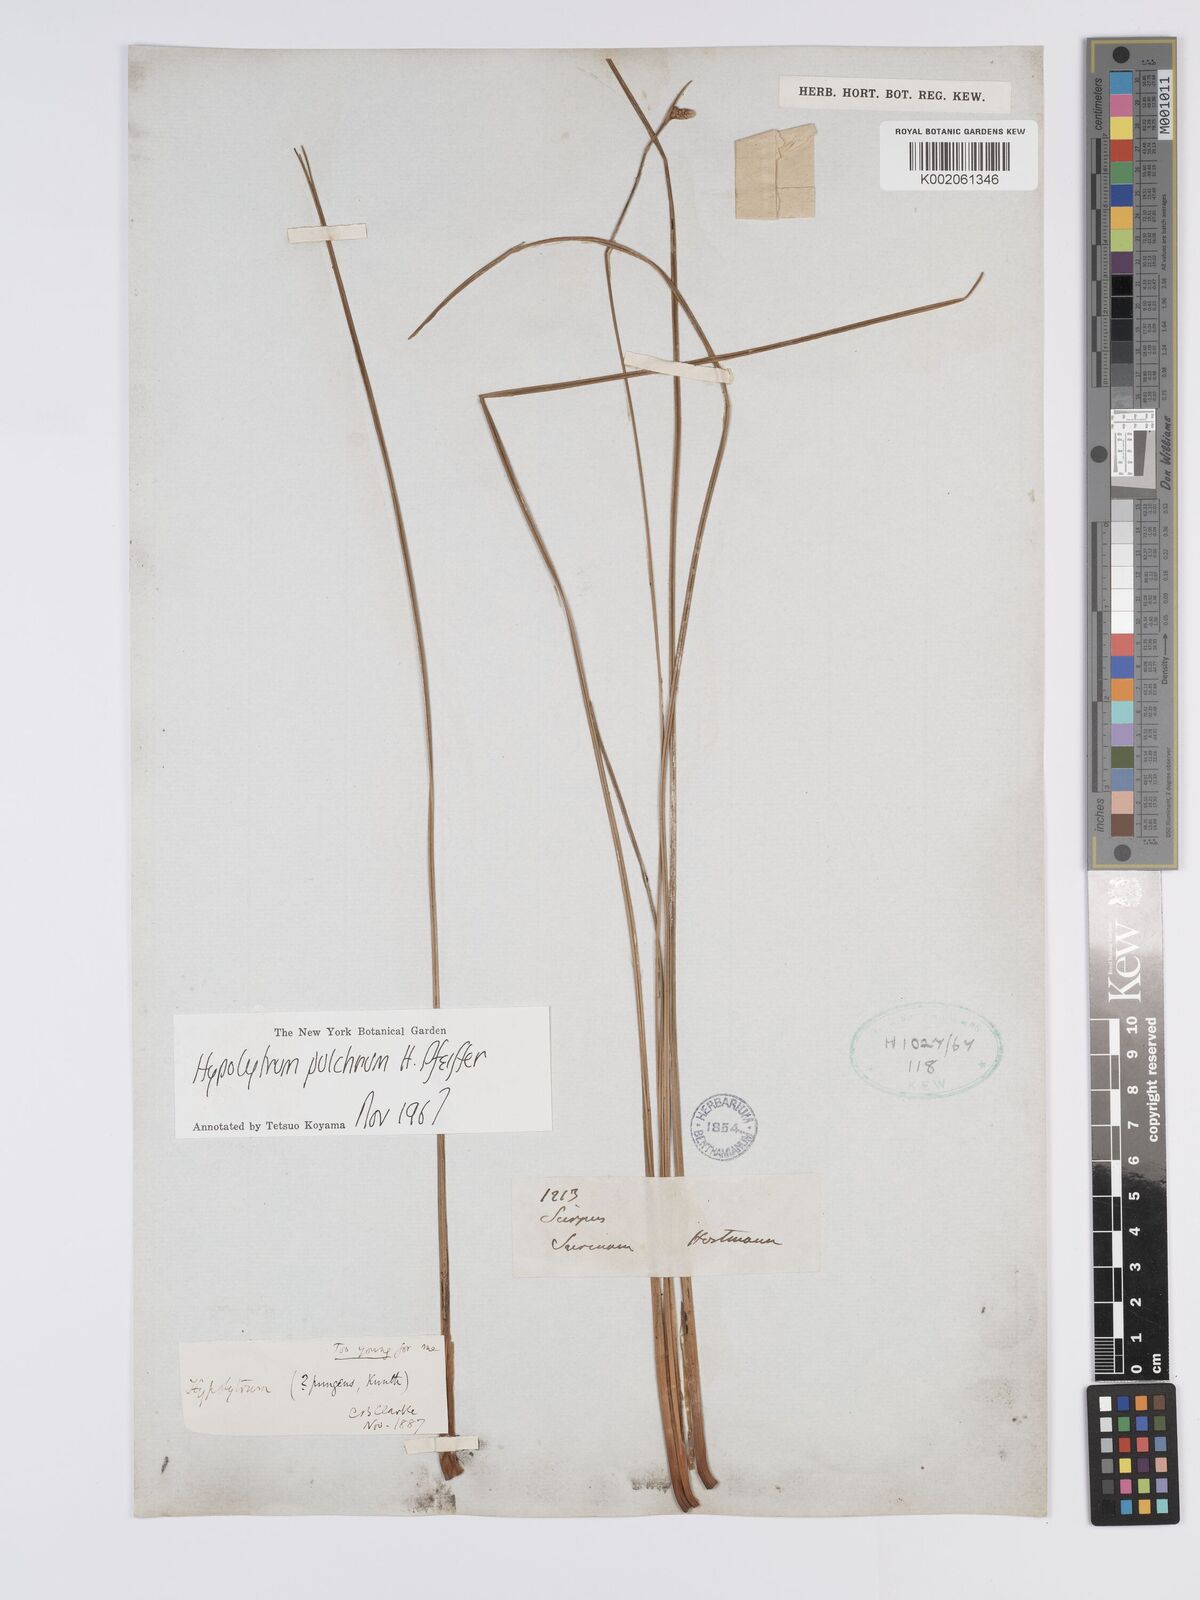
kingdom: Plantae
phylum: Tracheophyta
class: Liliopsida
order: Poales
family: Cyperaceae
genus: Hypolytrum
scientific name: Hypolytrum pulchrum
